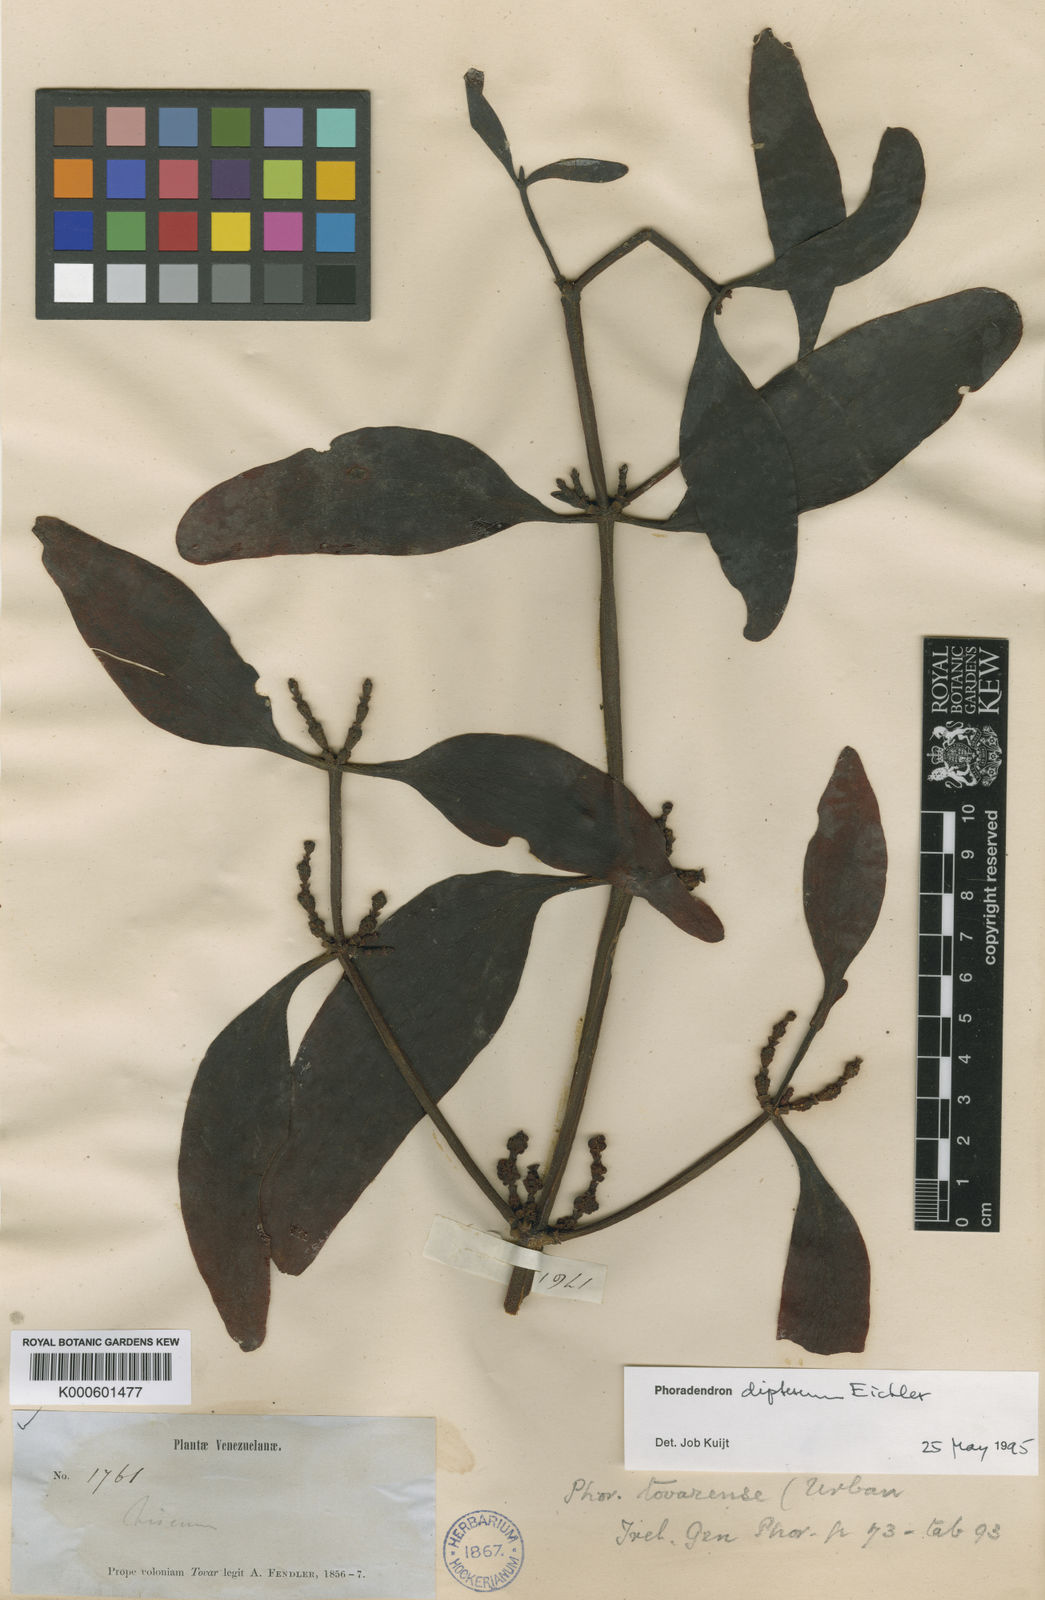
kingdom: Plantae
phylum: Tracheophyta
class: Magnoliopsida
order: Santalales
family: Viscaceae
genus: Phoradendron
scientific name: Phoradendron dipterum
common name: Fourpart mistletoe
